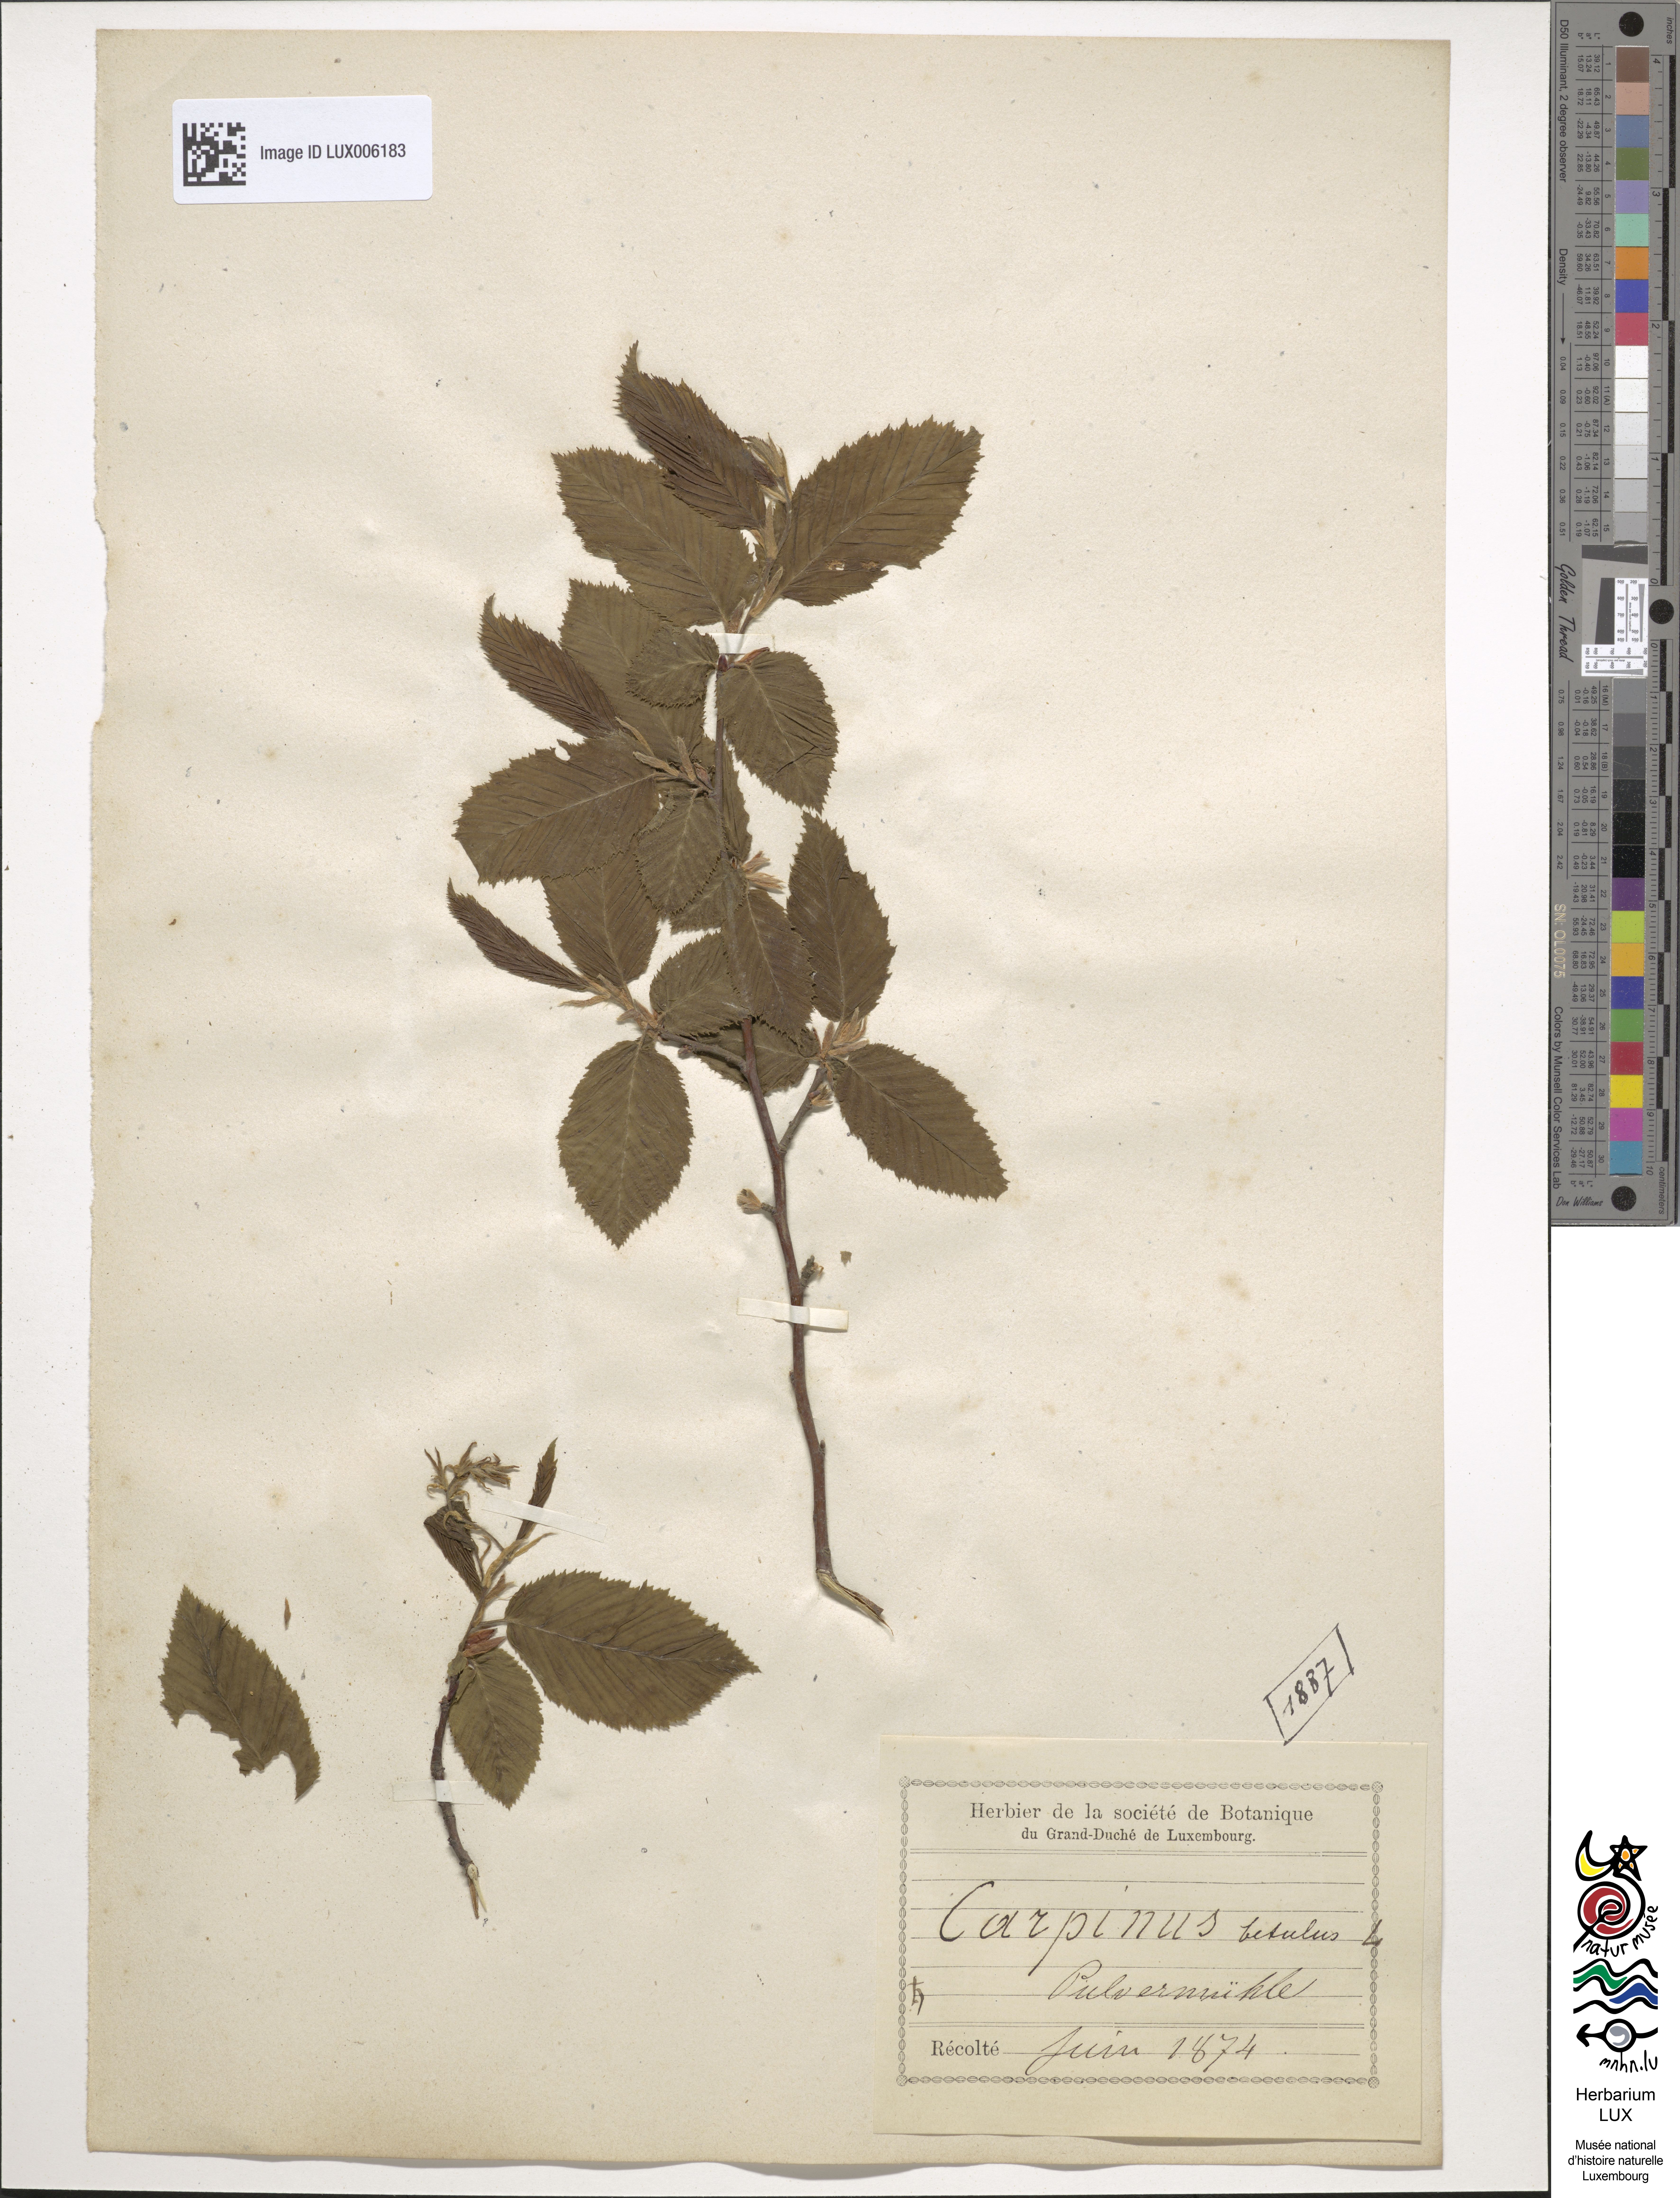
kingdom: Plantae
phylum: Tracheophyta
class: Magnoliopsida
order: Fagales
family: Betulaceae
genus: Carpinus
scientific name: Carpinus betulus
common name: Hornbeam
